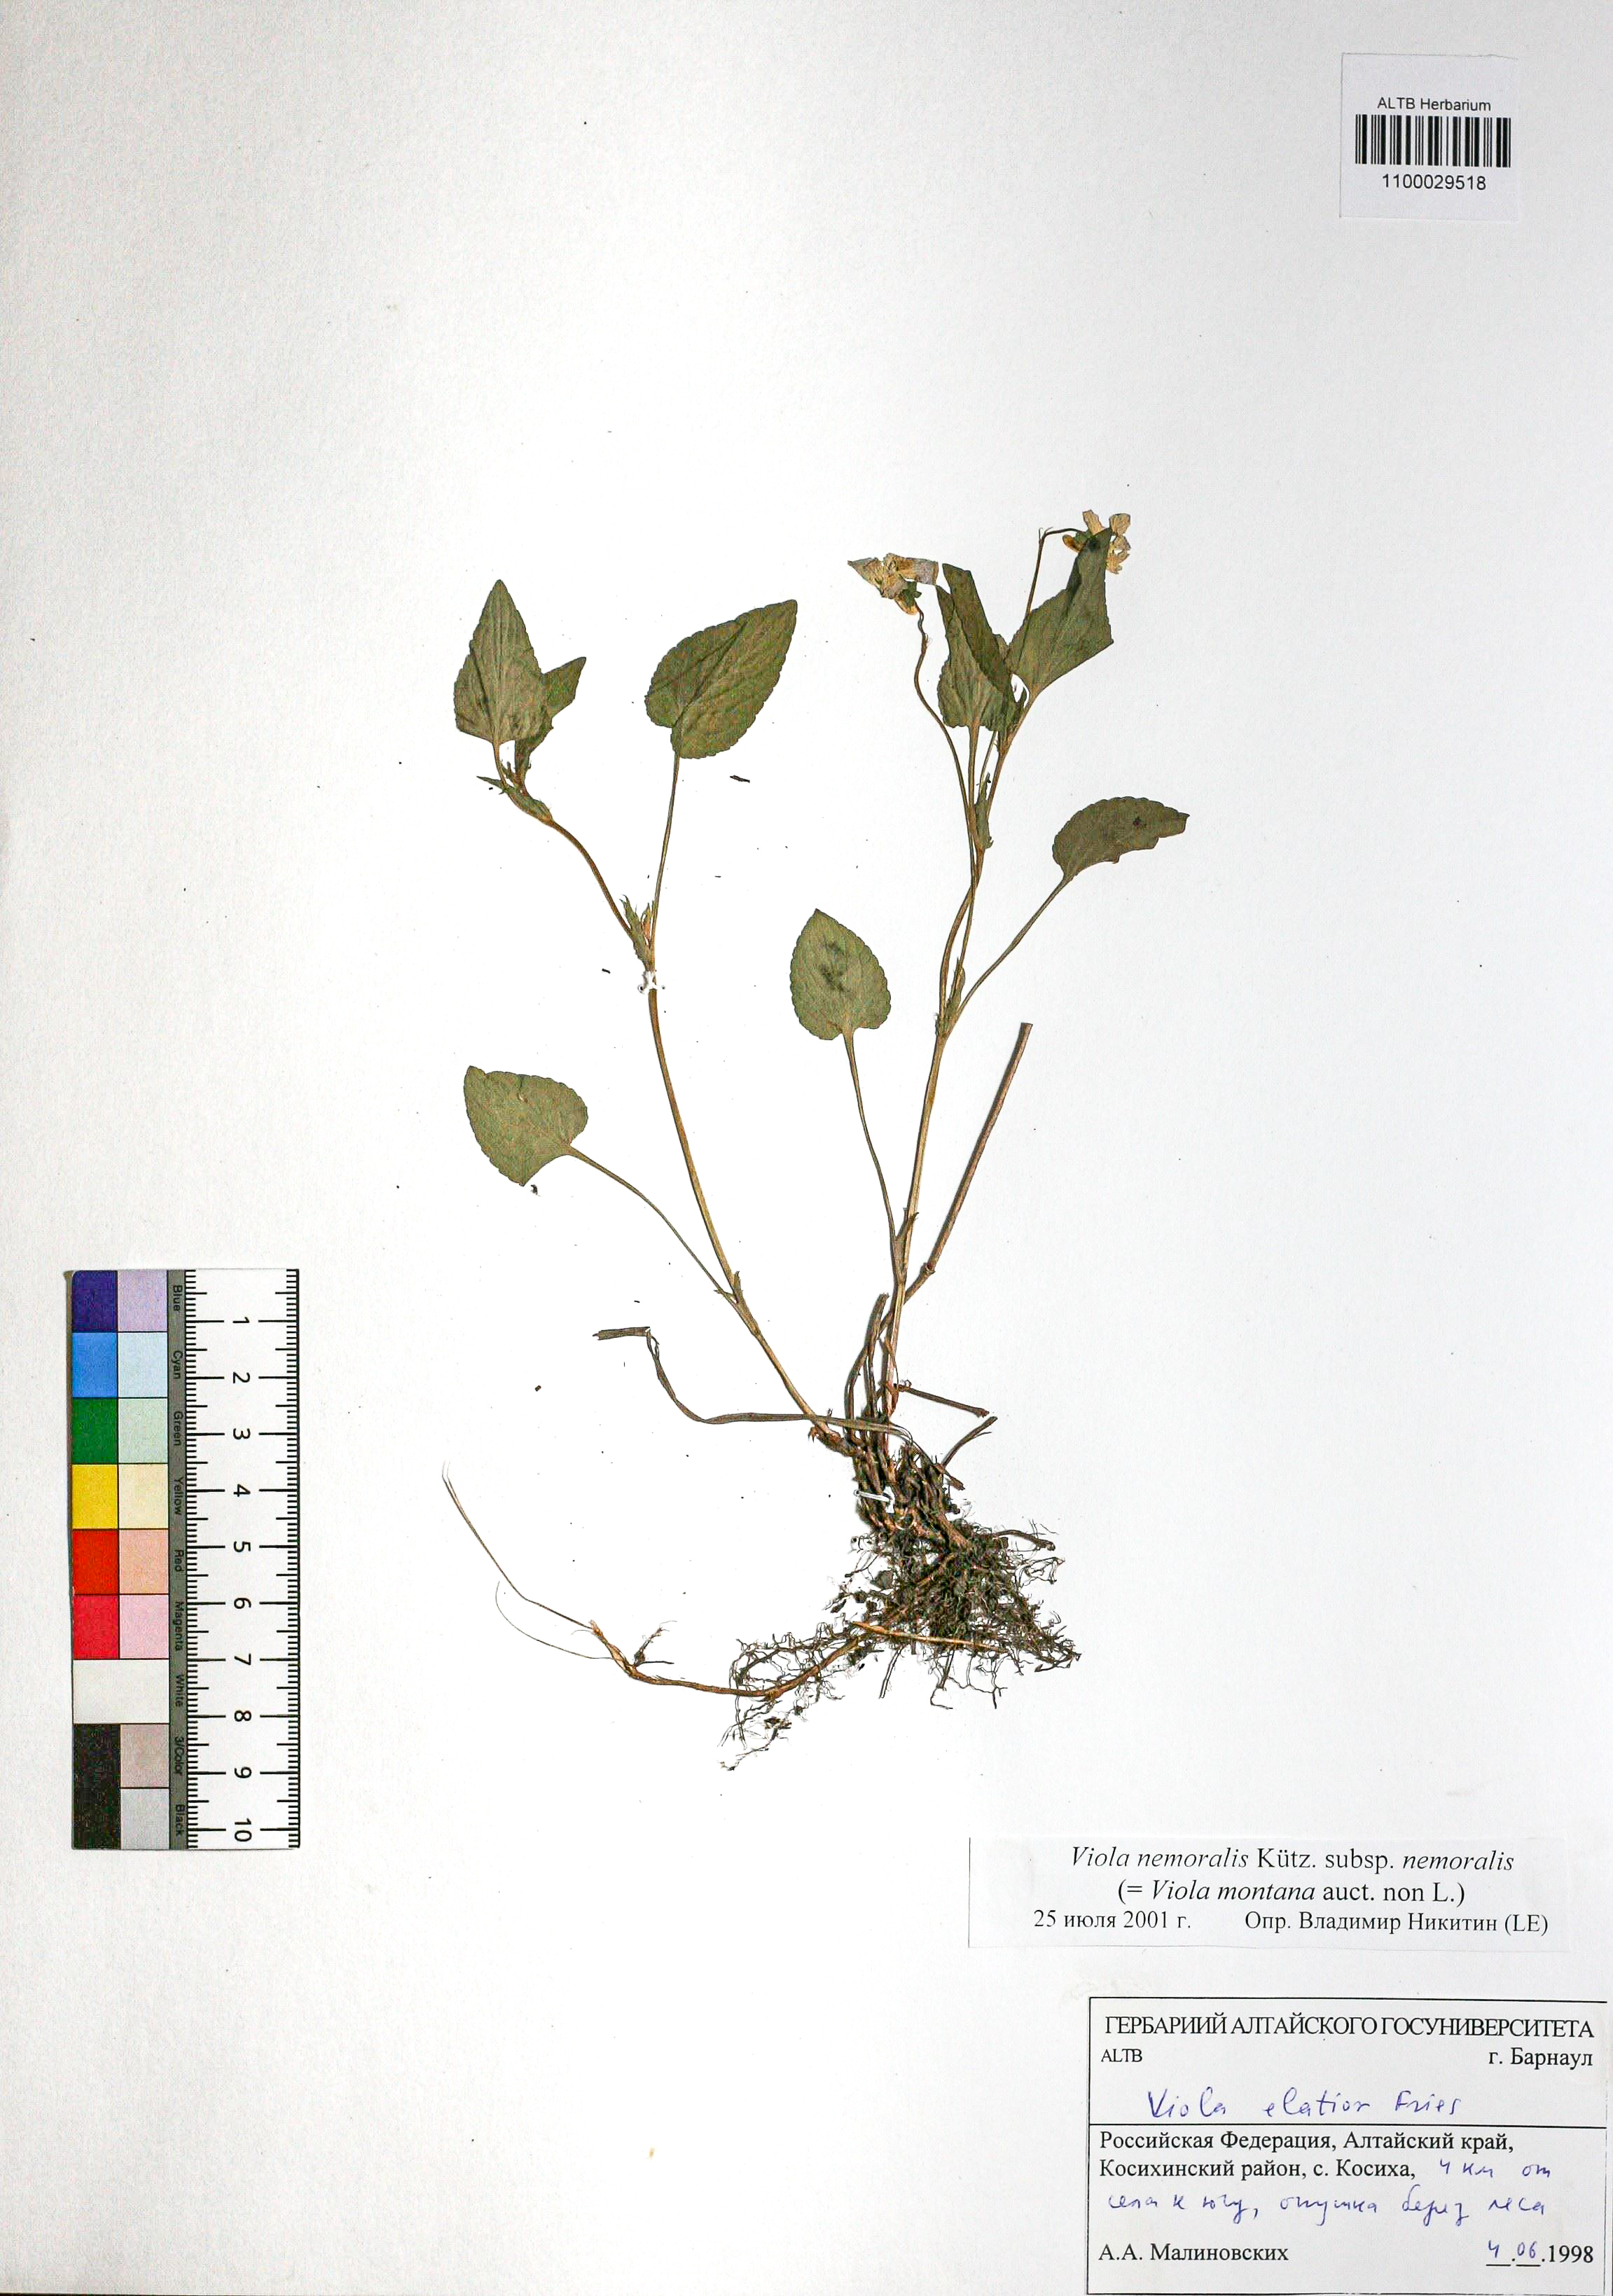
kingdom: Plantae
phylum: Tracheophyta
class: Magnoliopsida
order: Malpighiales
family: Violaceae
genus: Viola
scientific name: Viola ruppii
